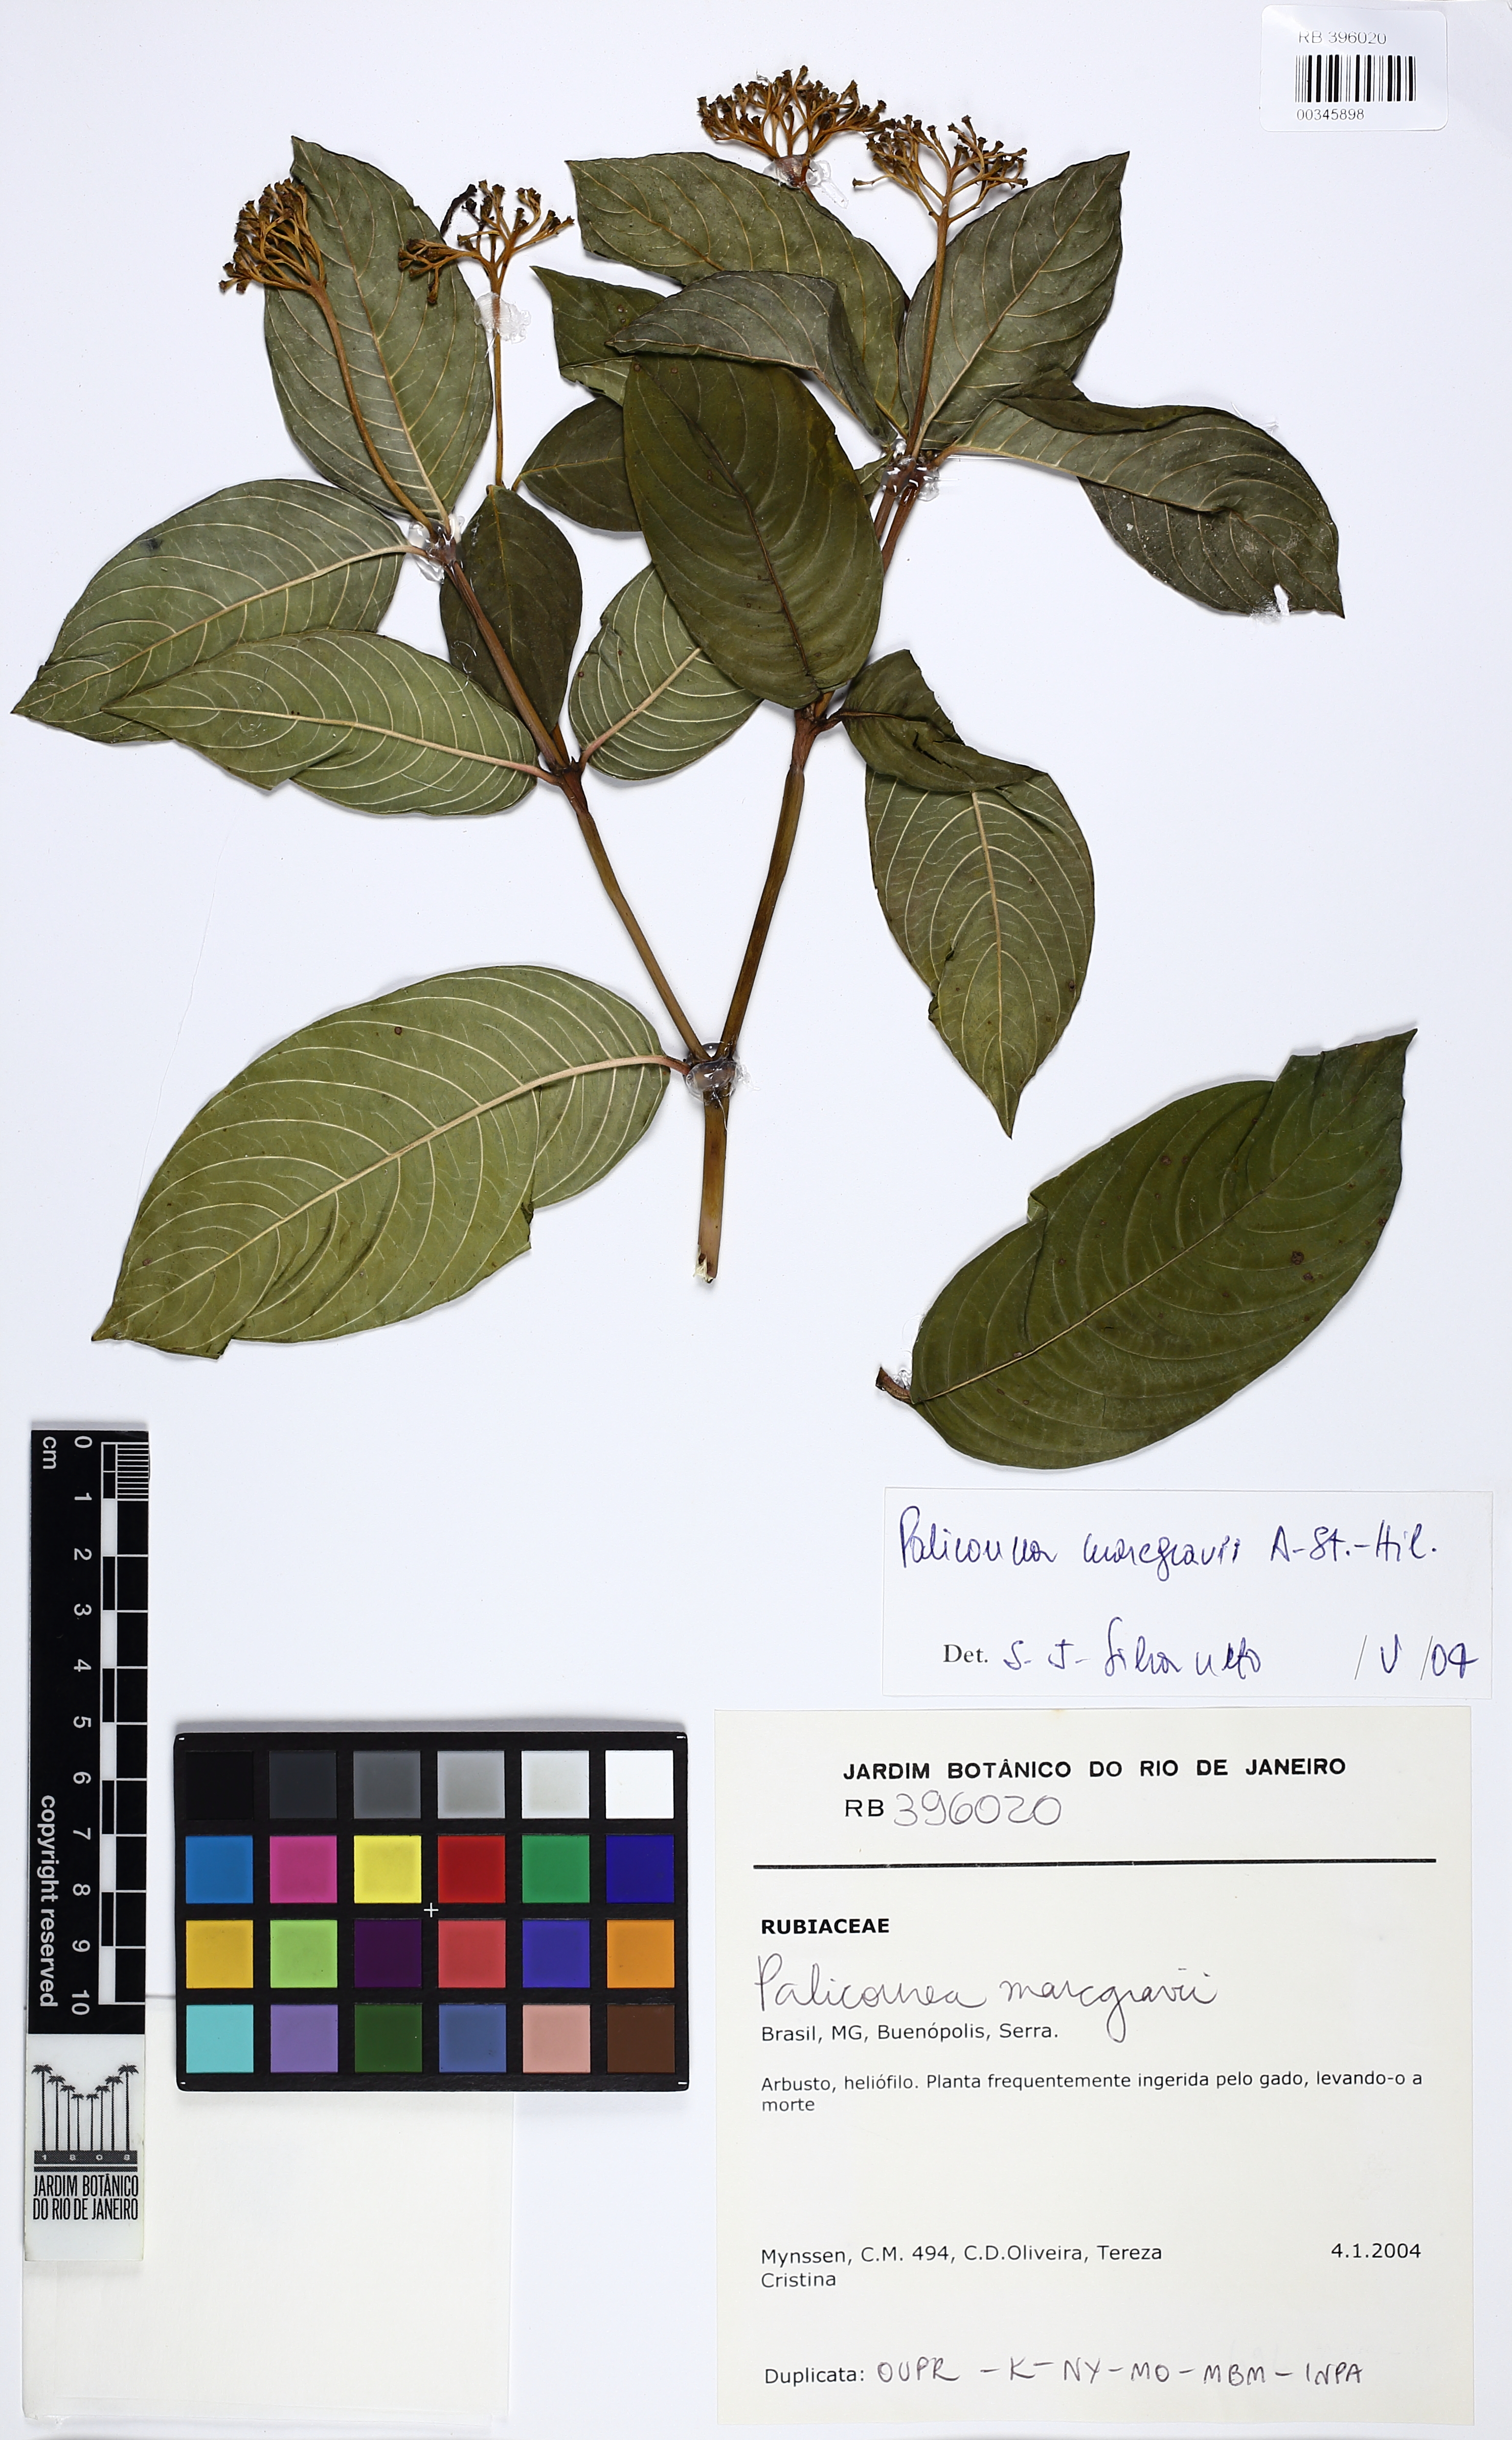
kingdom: Plantae
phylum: Tracheophyta
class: Magnoliopsida
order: Gentianales
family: Rubiaceae
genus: Palicourea
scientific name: Palicourea marcgravii
